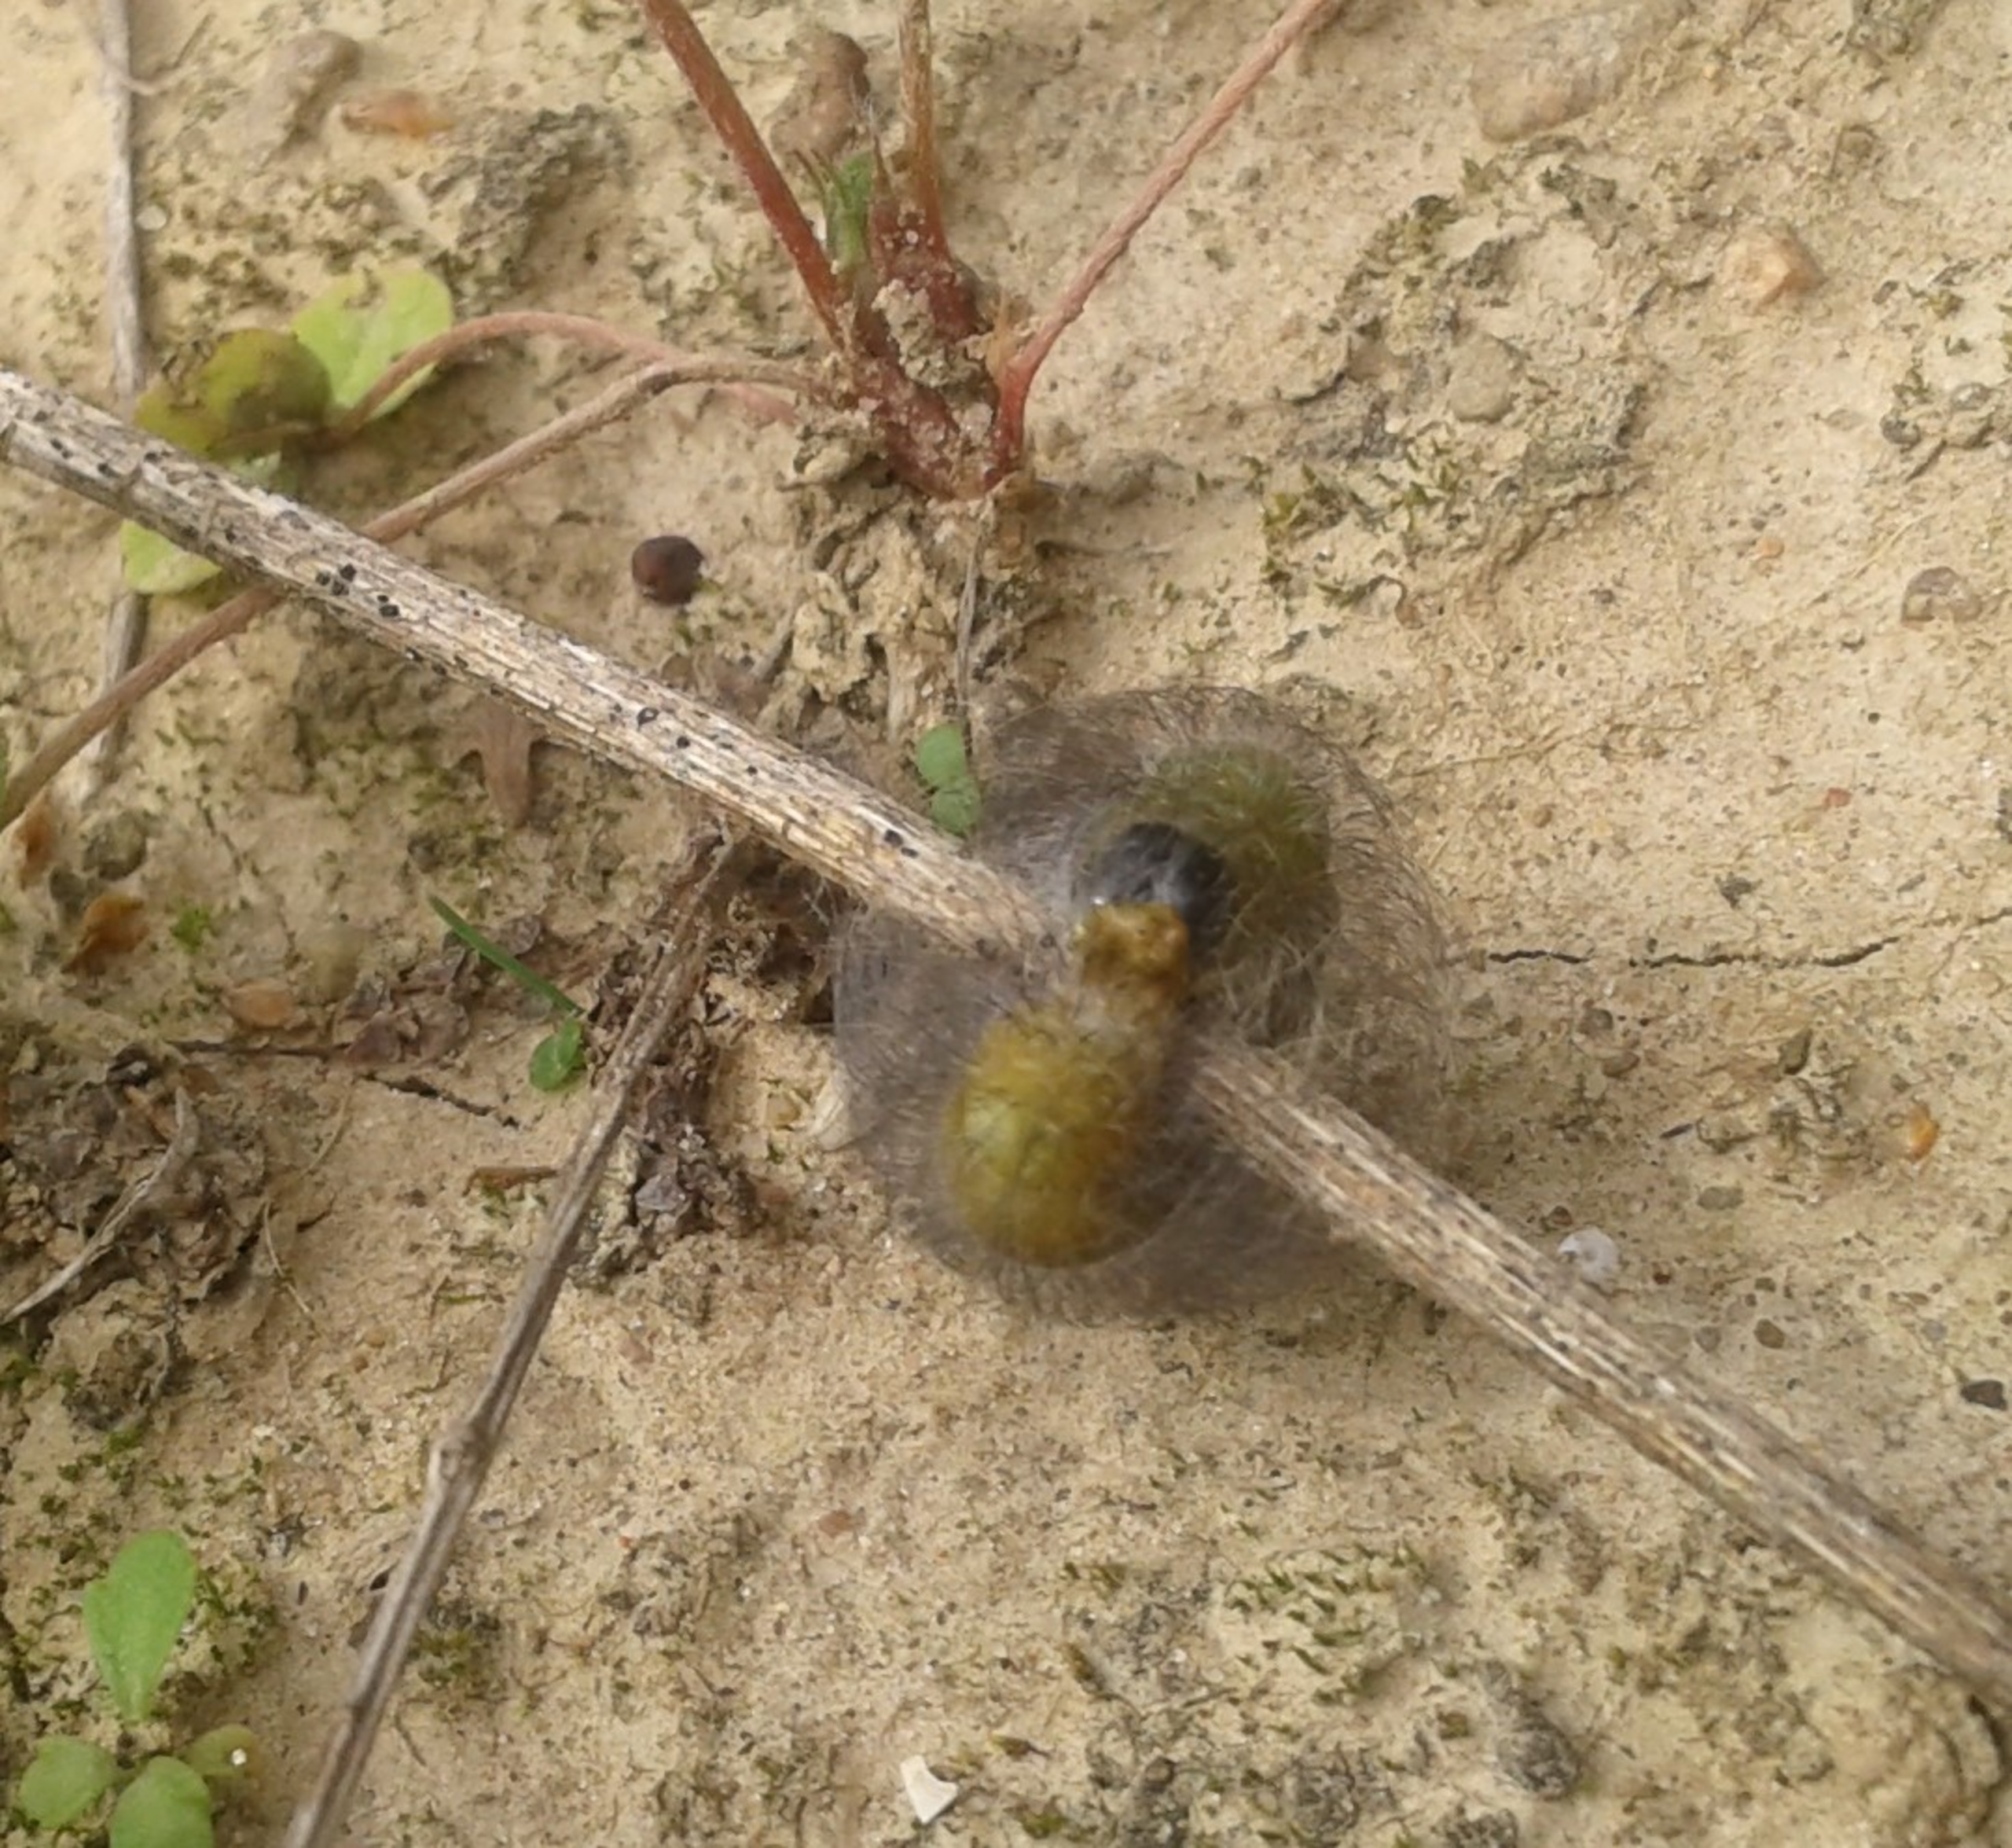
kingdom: Animalia
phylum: Arthropoda
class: Insecta
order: Lepidoptera
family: Noctuidae
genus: Acronicta
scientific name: Acronicta leporina
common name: Snehare
